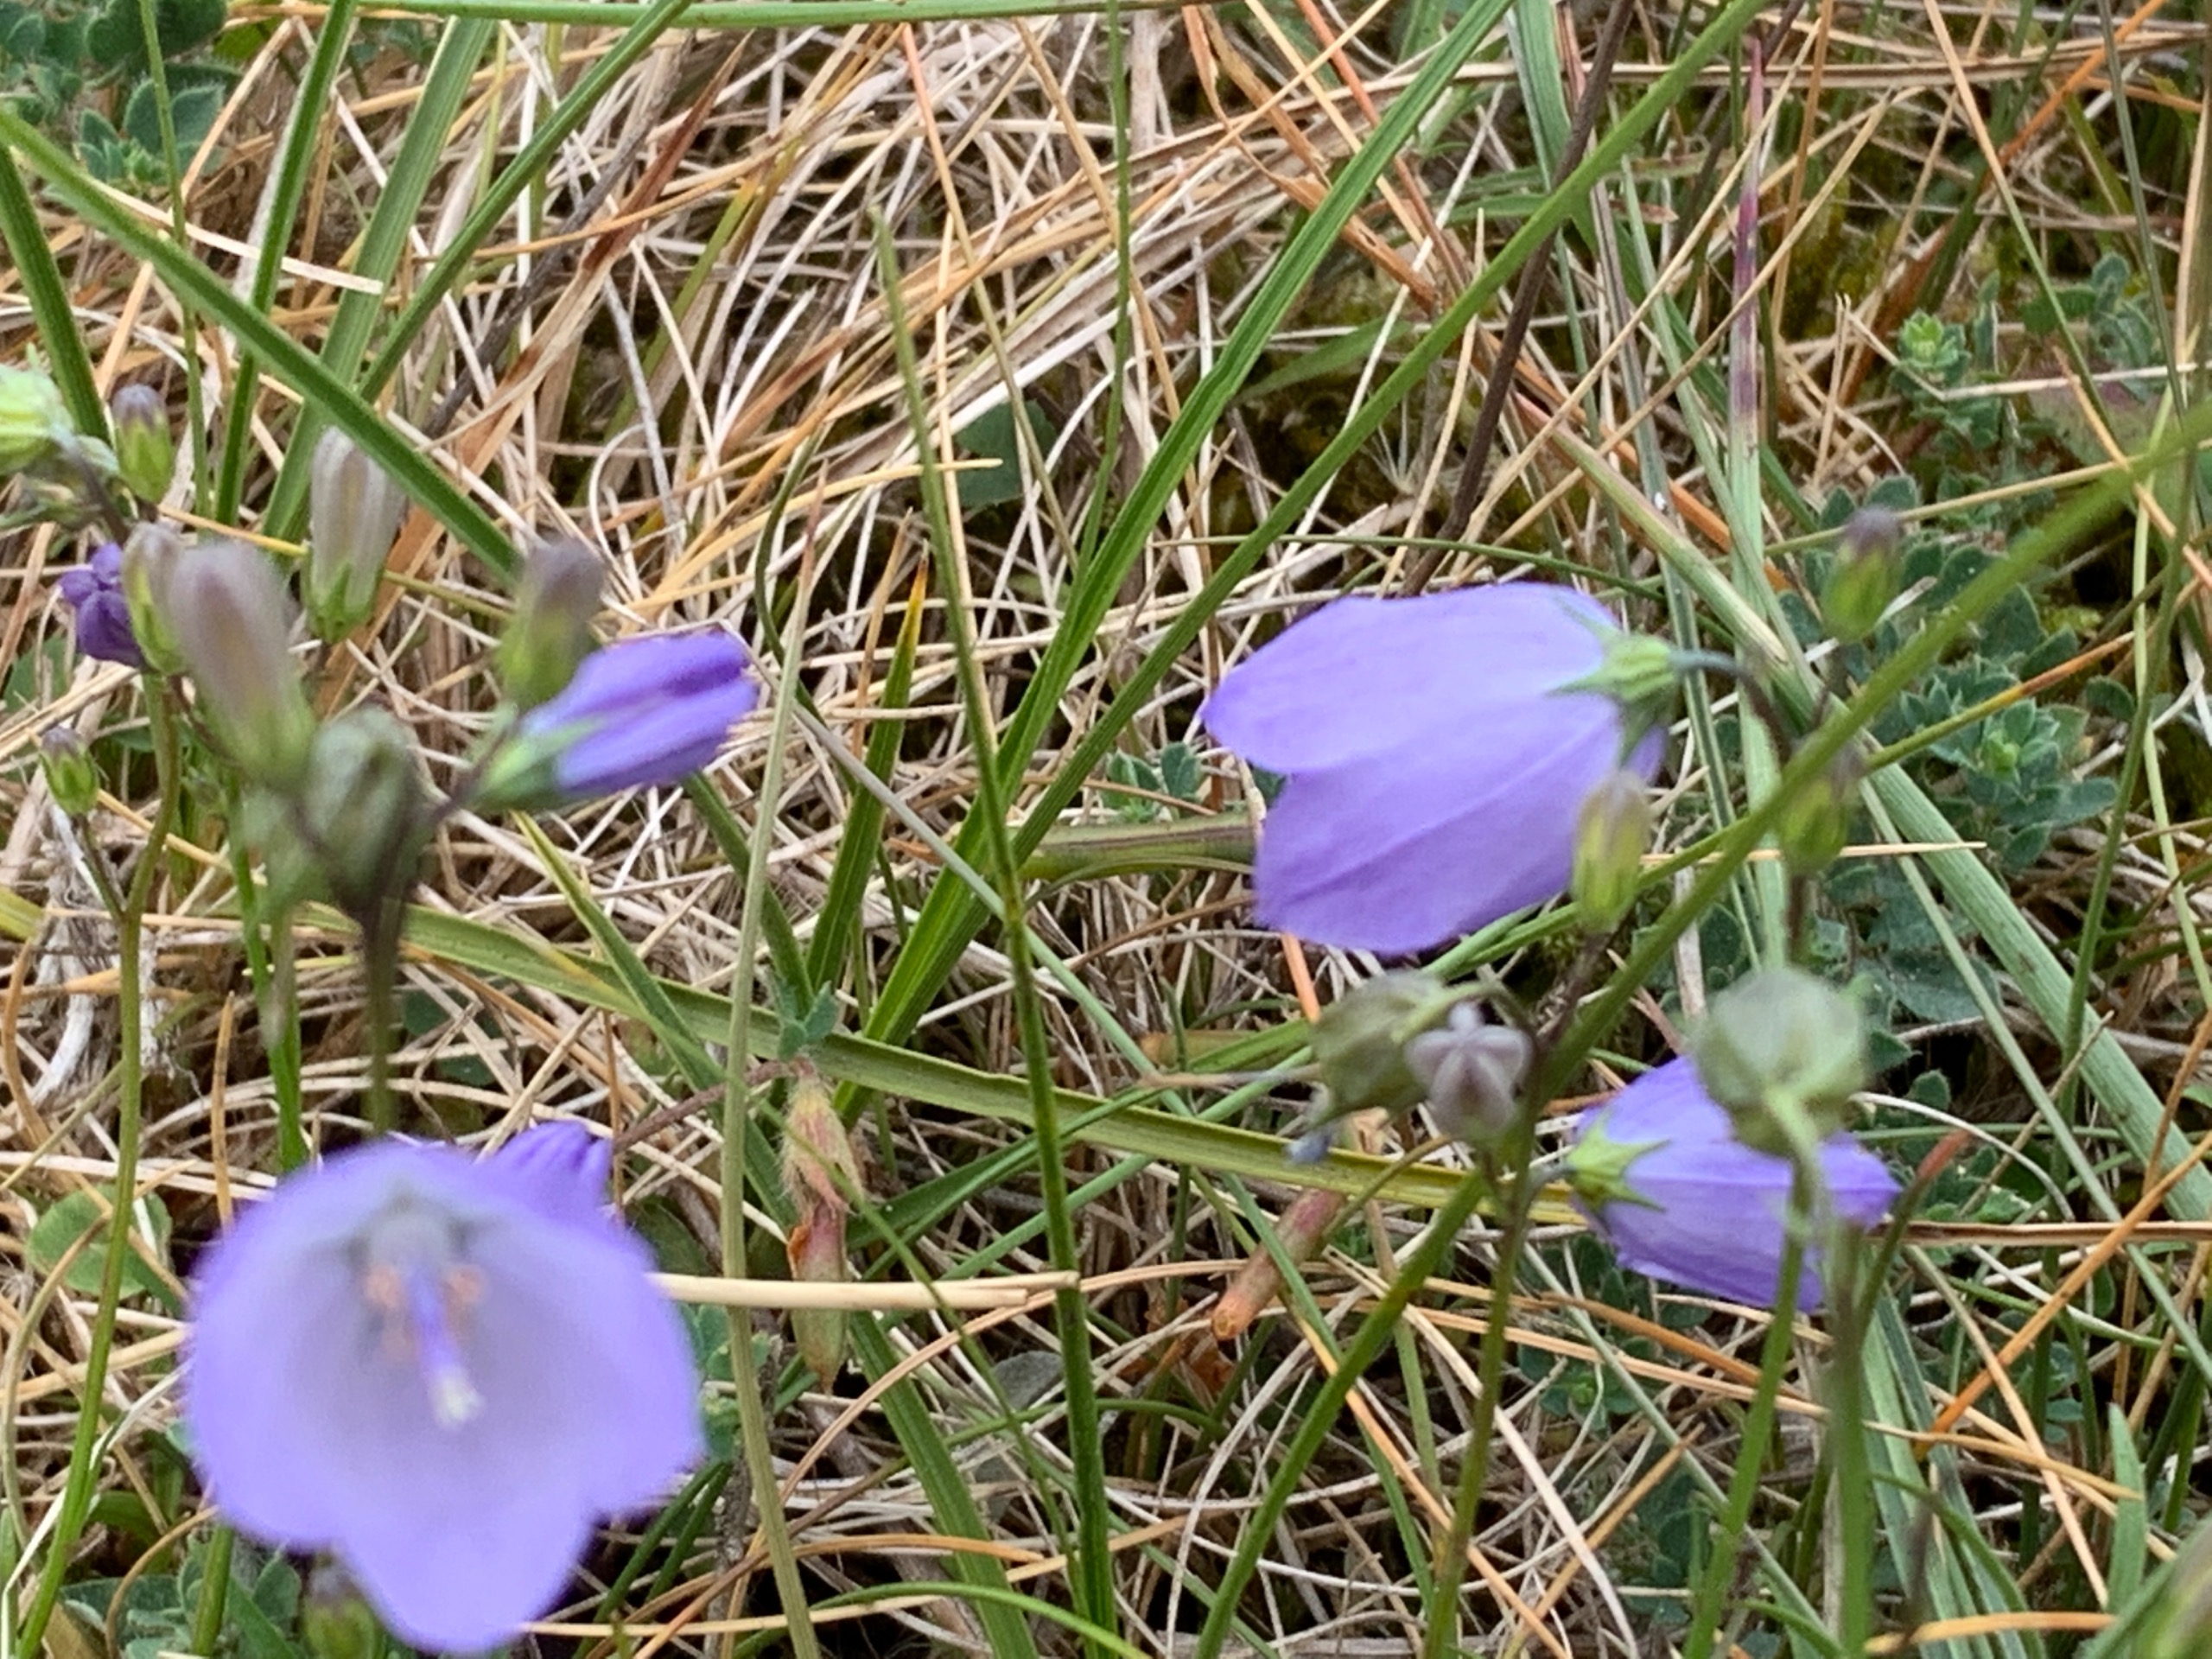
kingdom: Plantae
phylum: Tracheophyta
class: Magnoliopsida
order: Asterales
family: Campanulaceae
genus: Campanula
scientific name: Campanula rotundifolia
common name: Liden klokke
